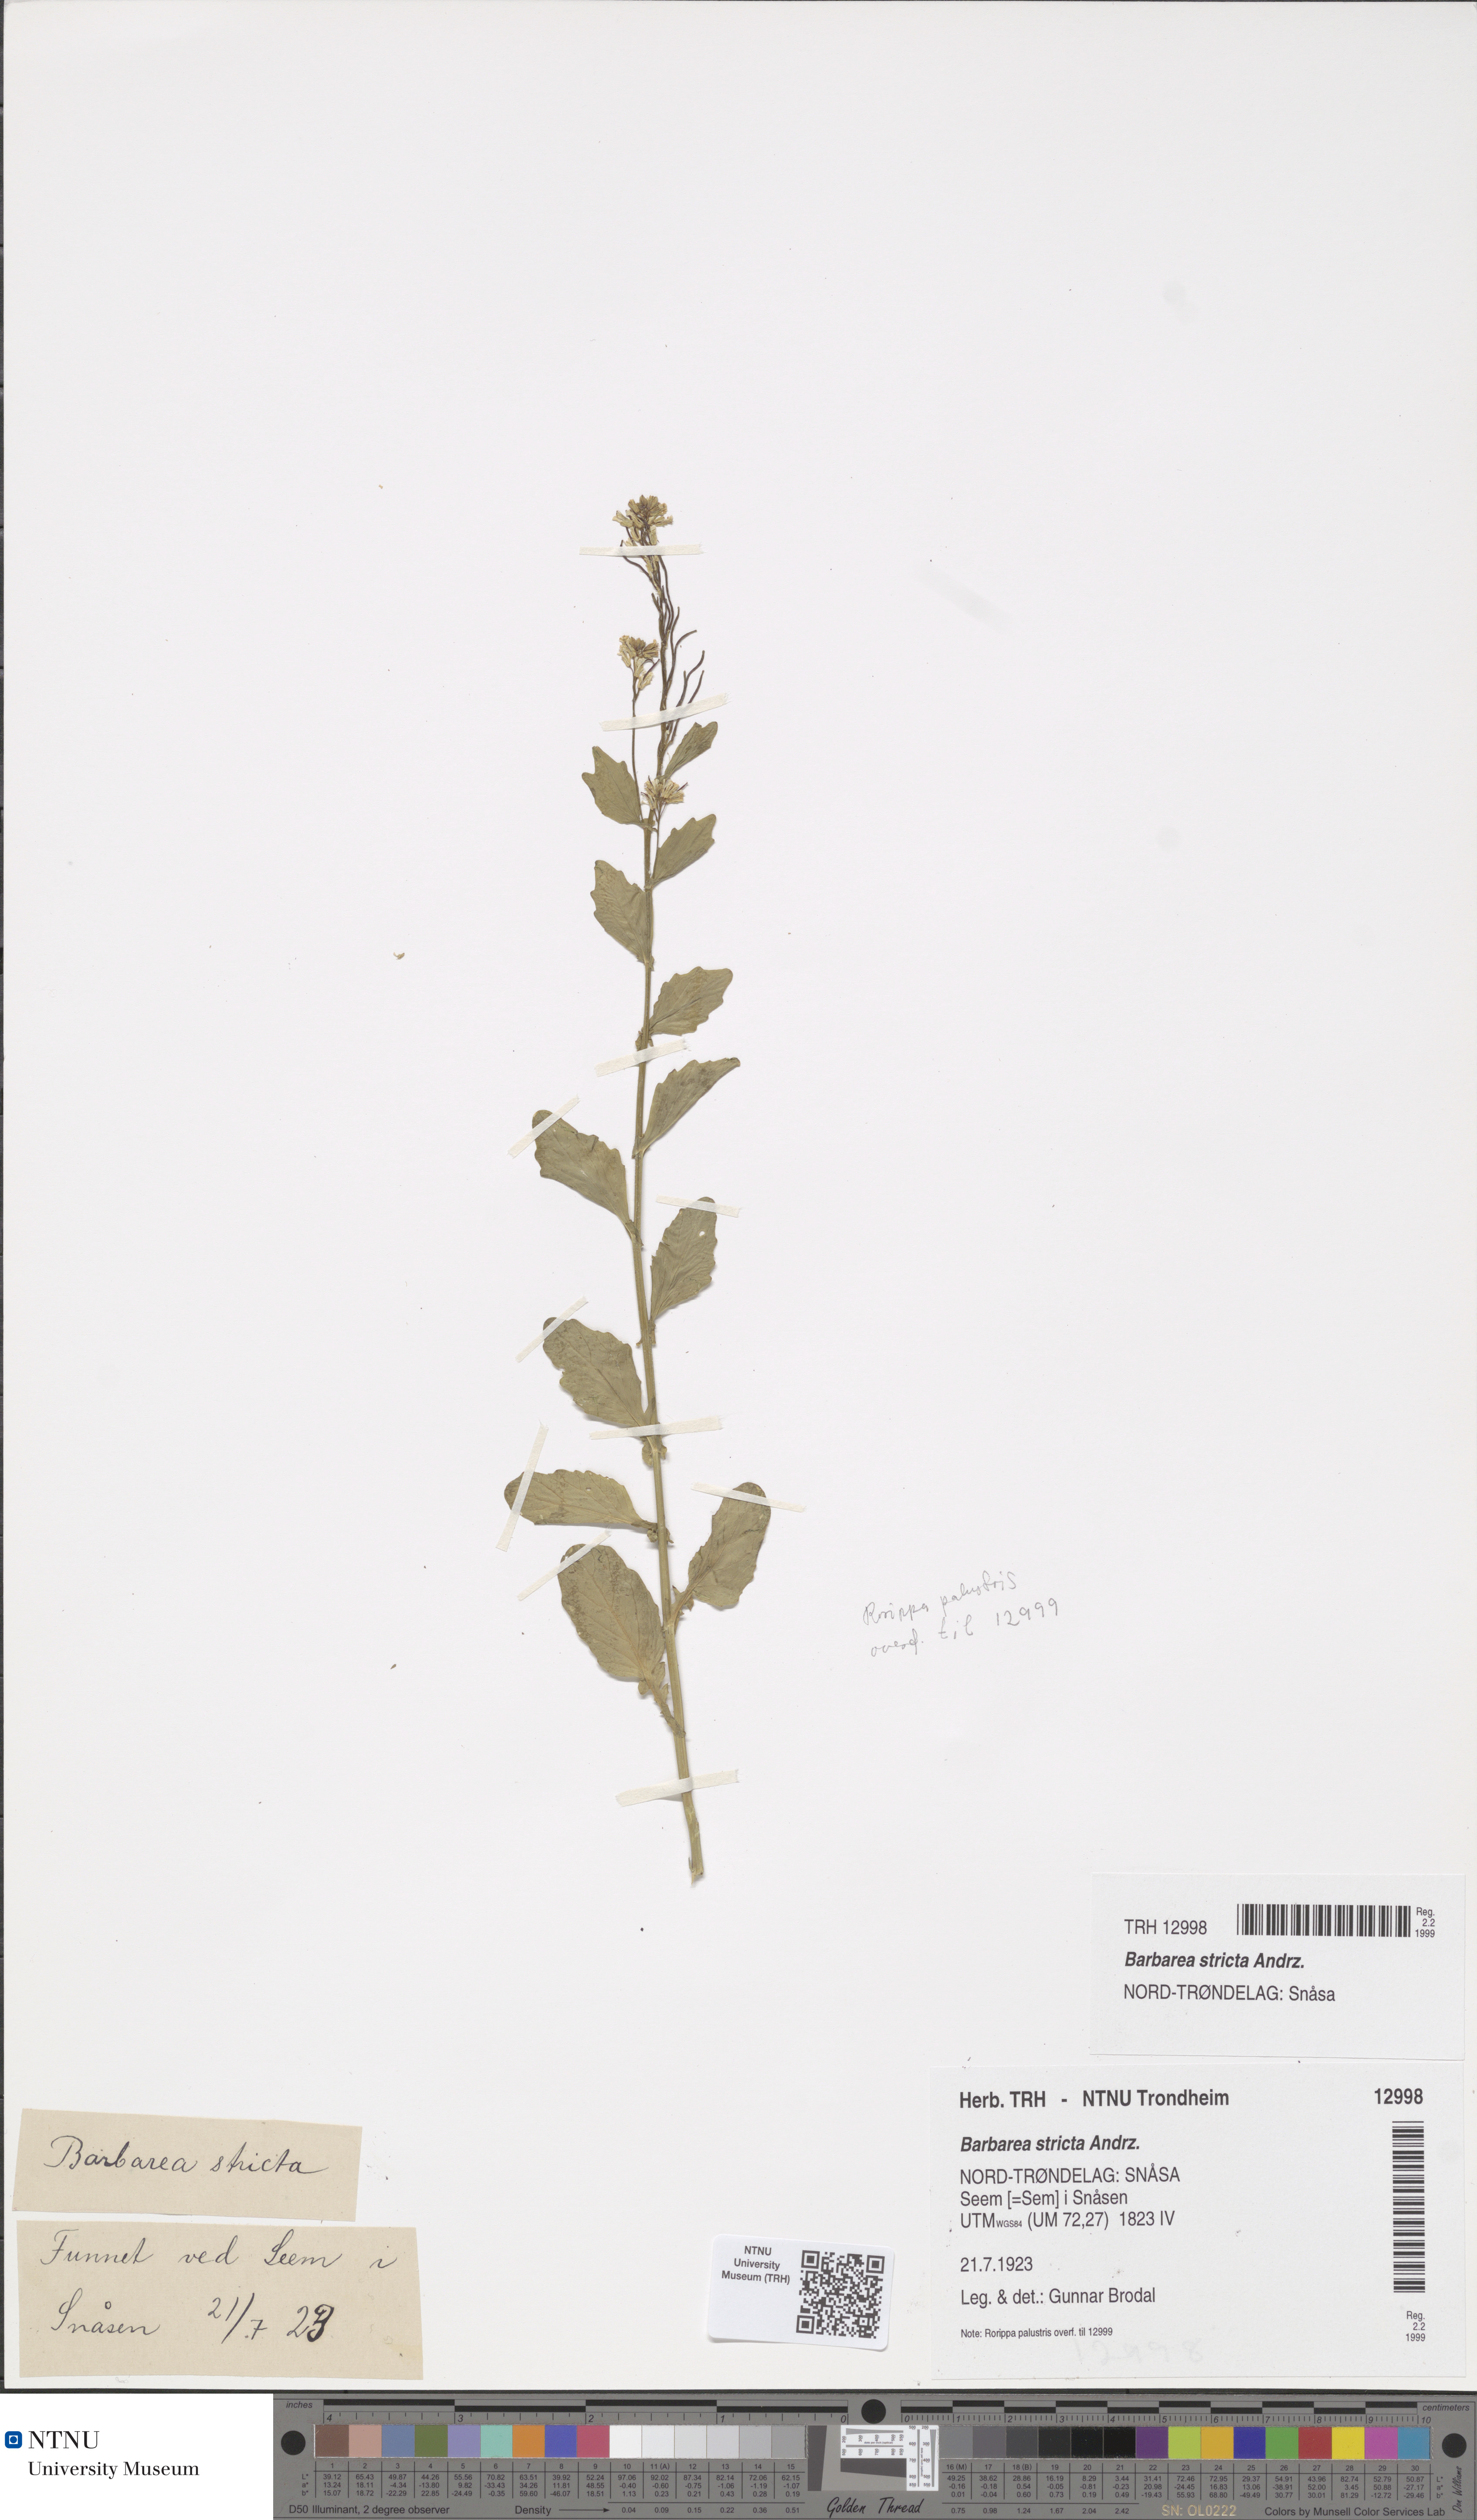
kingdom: Plantae
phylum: Tracheophyta
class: Magnoliopsida
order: Brassicales
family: Brassicaceae
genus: Barbarea
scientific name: Barbarea stricta
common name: Small-flowered winter-cress
